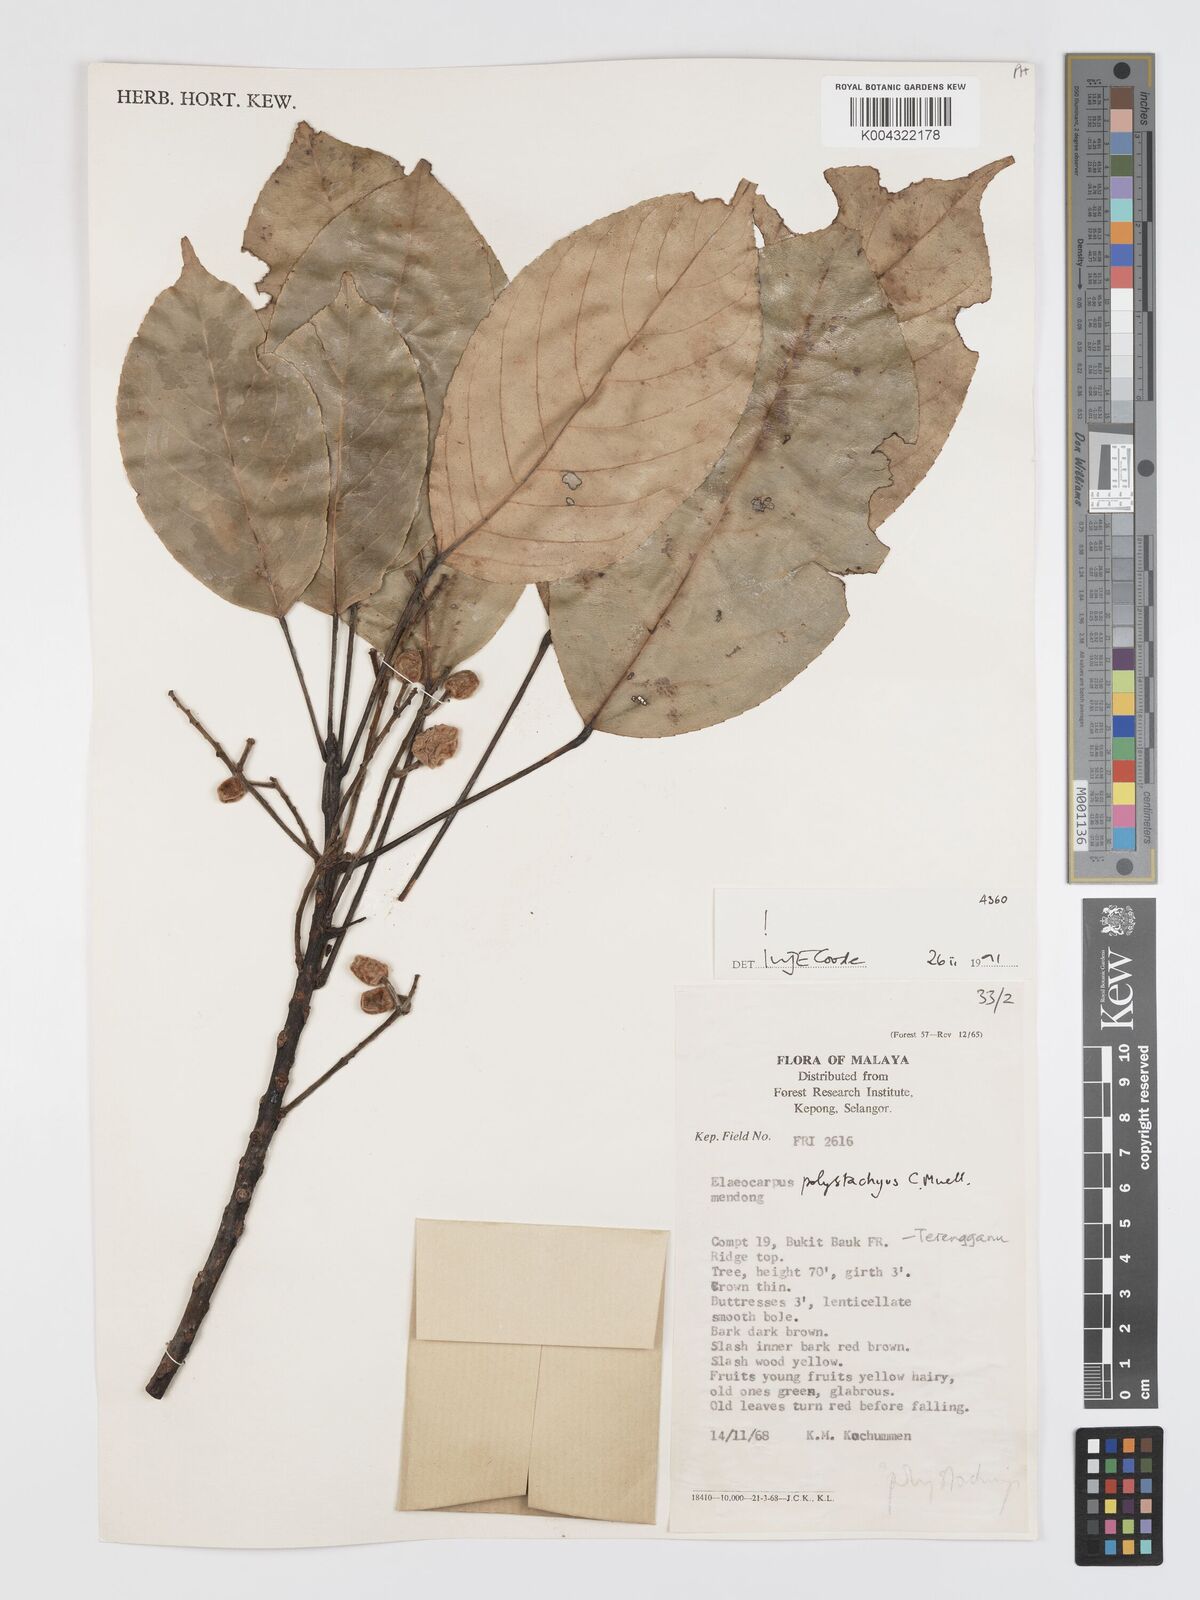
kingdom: Plantae
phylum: Tracheophyta
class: Magnoliopsida
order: Oxalidales
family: Elaeocarpaceae
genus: Elaeocarpus
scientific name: Elaeocarpus polystachyus
